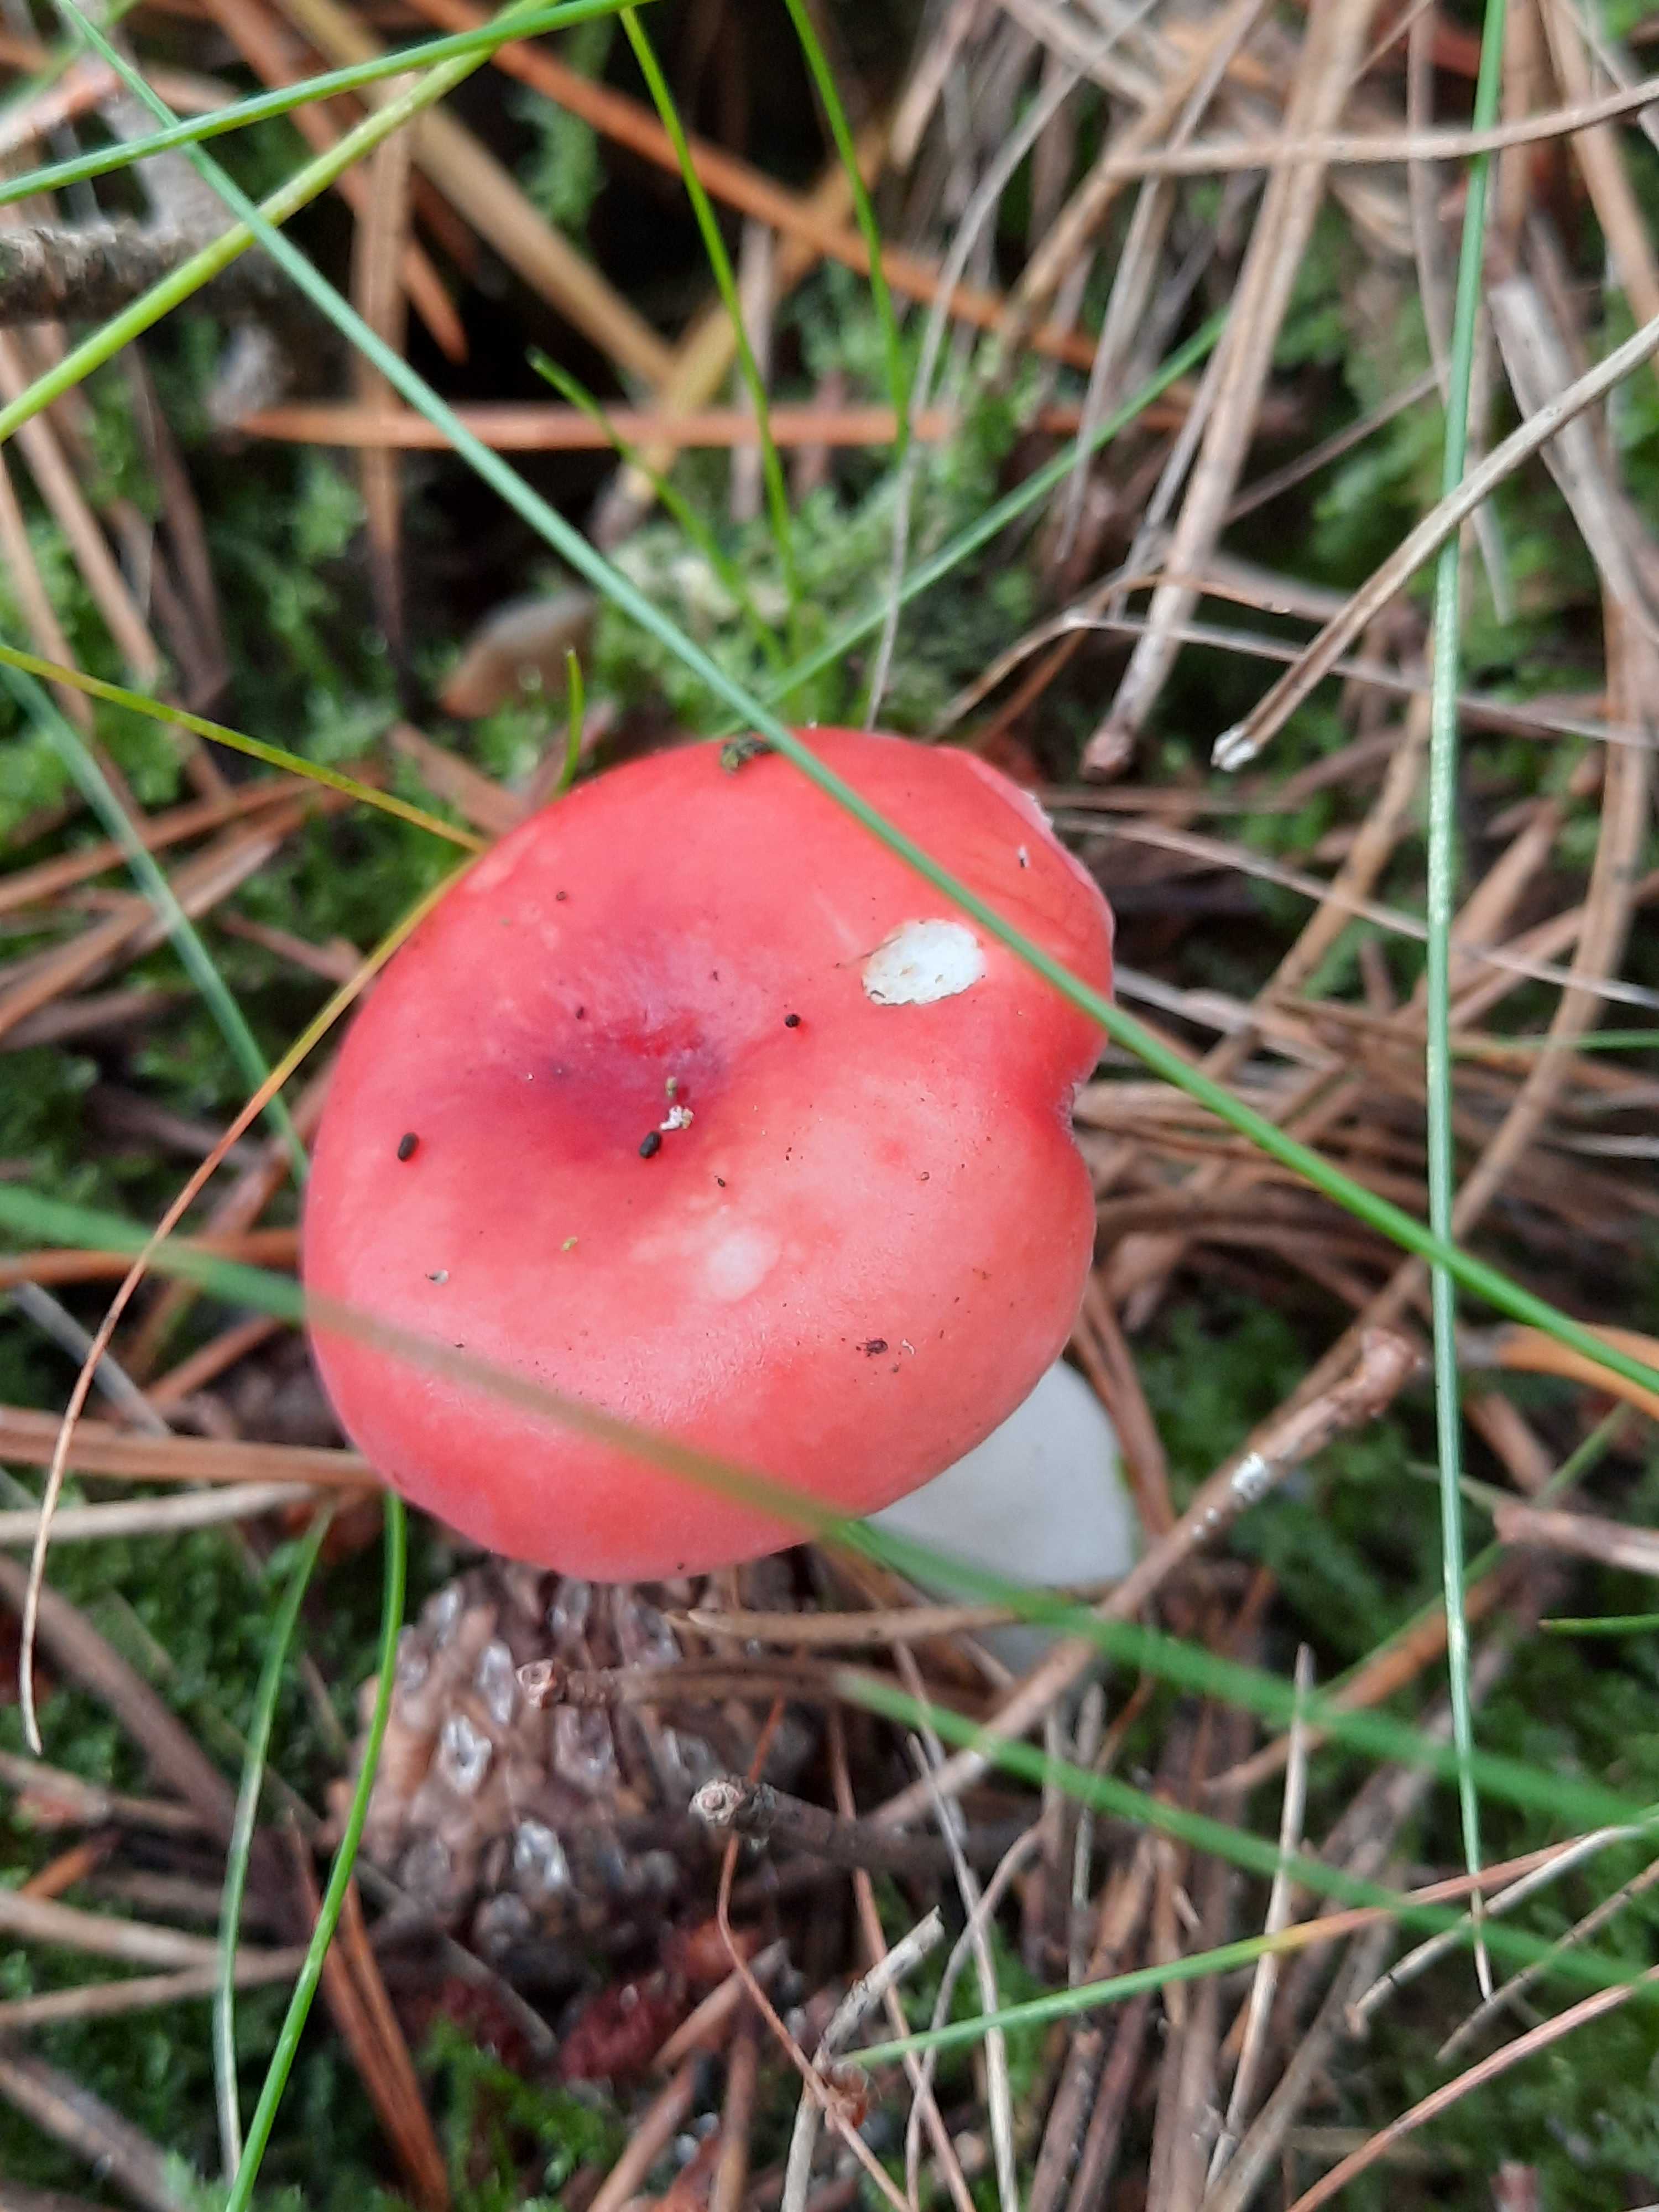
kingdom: Fungi
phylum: Basidiomycota
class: Agaricomycetes
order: Russulales
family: Russulaceae
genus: Russula
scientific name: Russula emetica
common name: stor gift-skørhat
